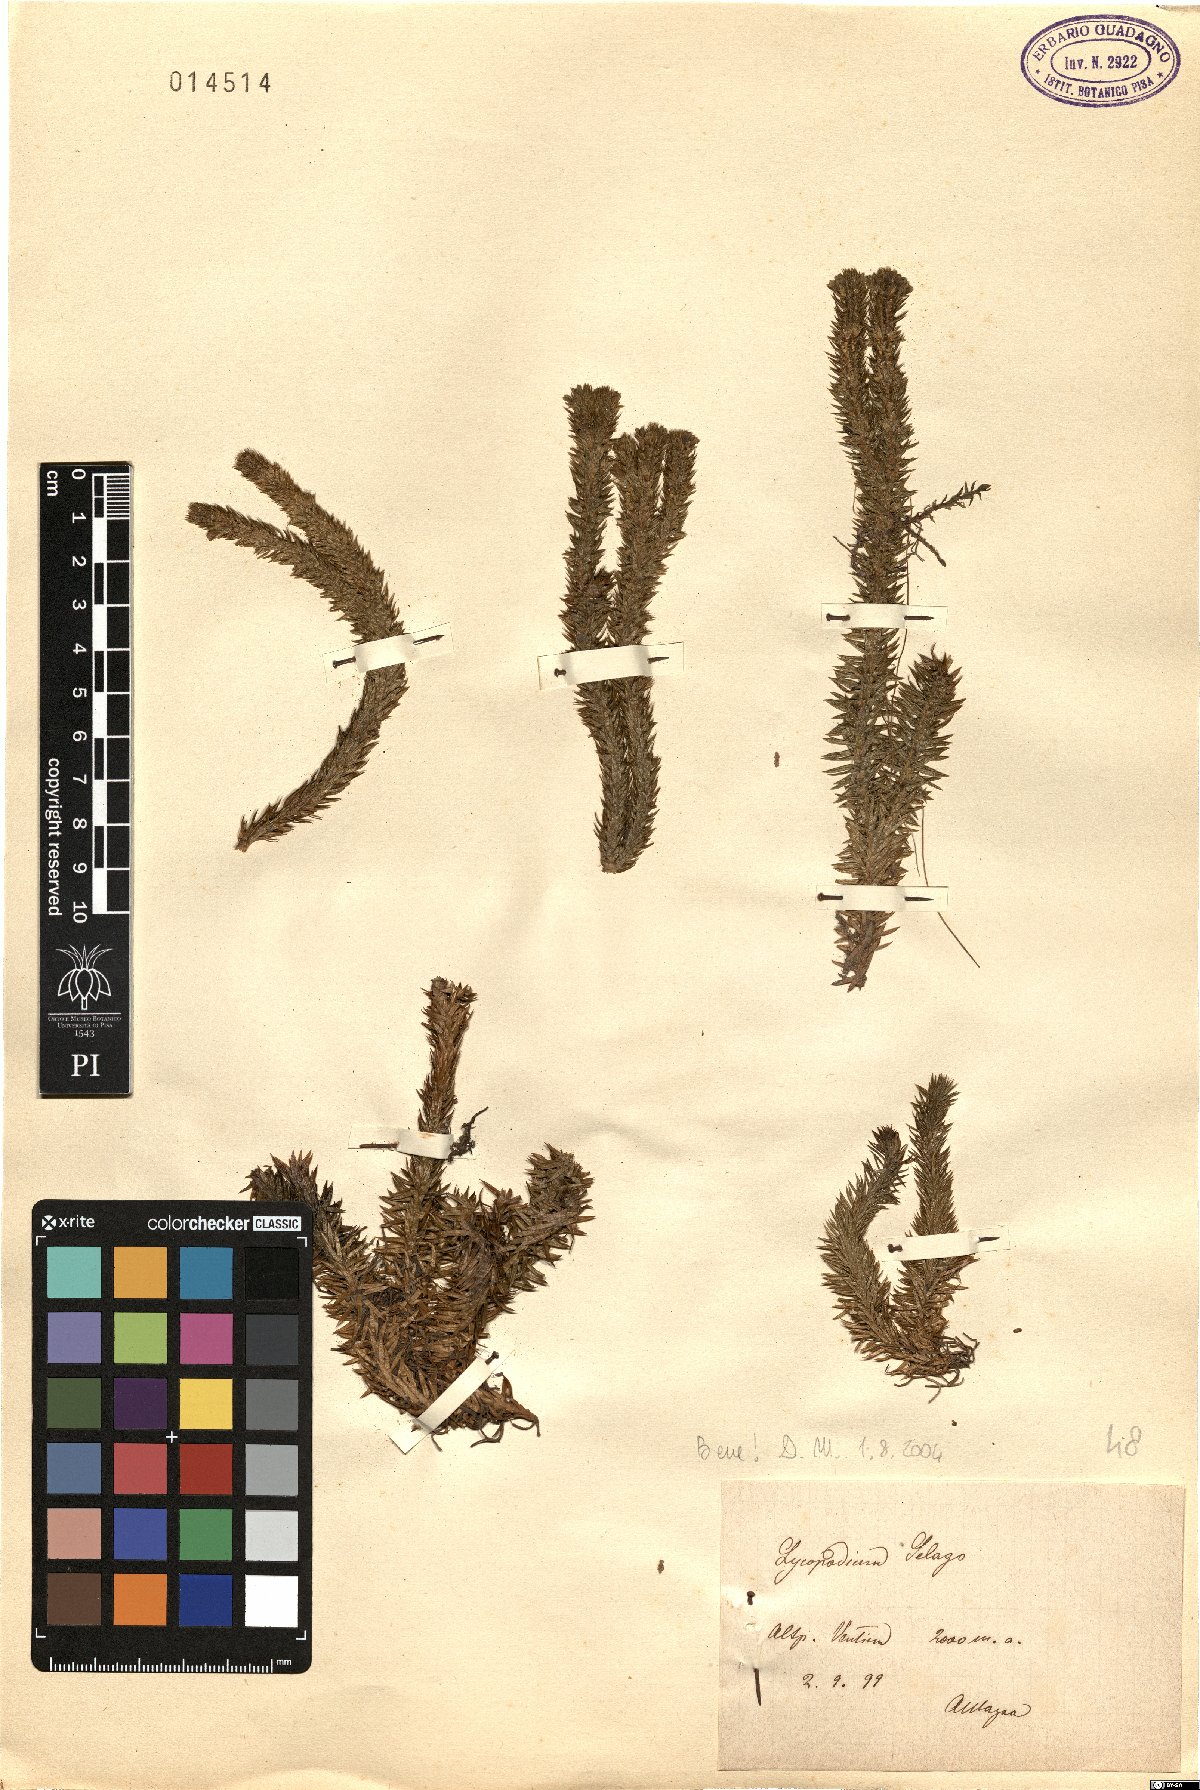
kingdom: Plantae
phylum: Tracheophyta
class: Lycopodiopsida
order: Lycopodiales
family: Lycopodiaceae
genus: Huperzia
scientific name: Huperzia selago
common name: Northern firmoss
